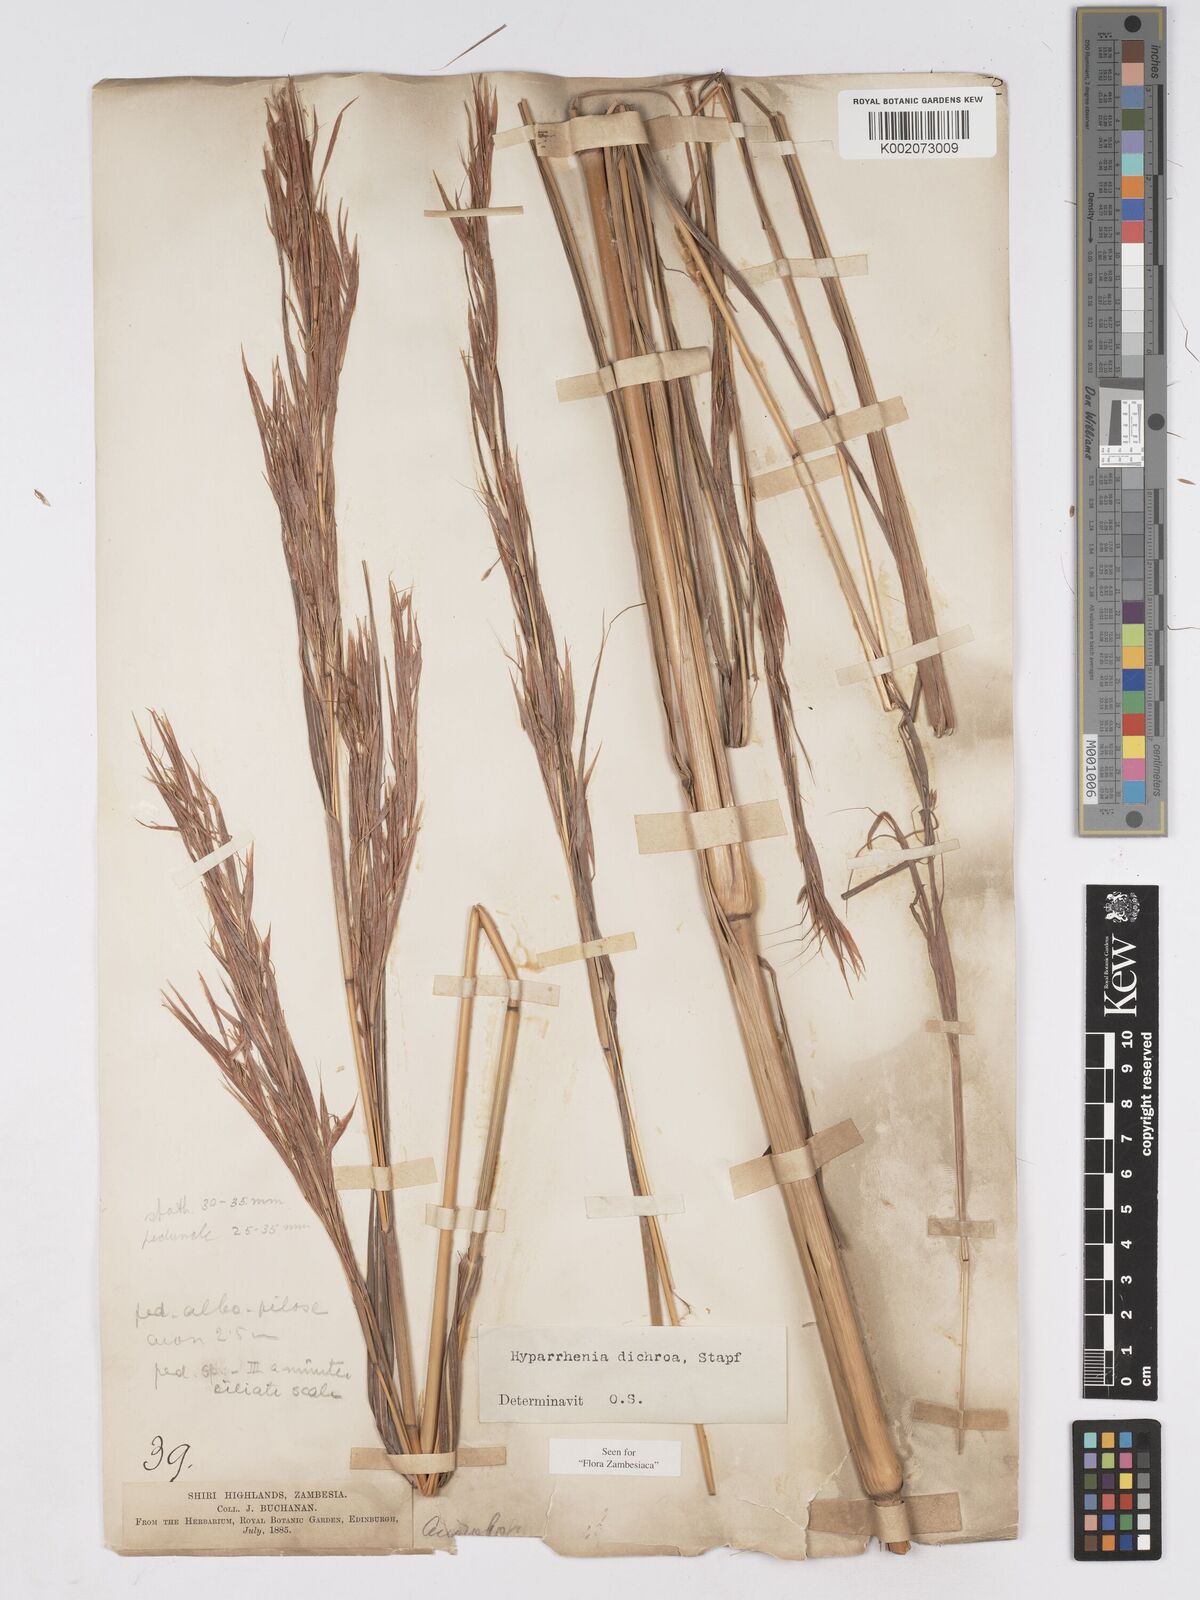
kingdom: Plantae
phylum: Tracheophyta
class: Liliopsida
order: Poales
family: Poaceae
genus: Hyparrhenia
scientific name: Hyparrhenia dichroa
